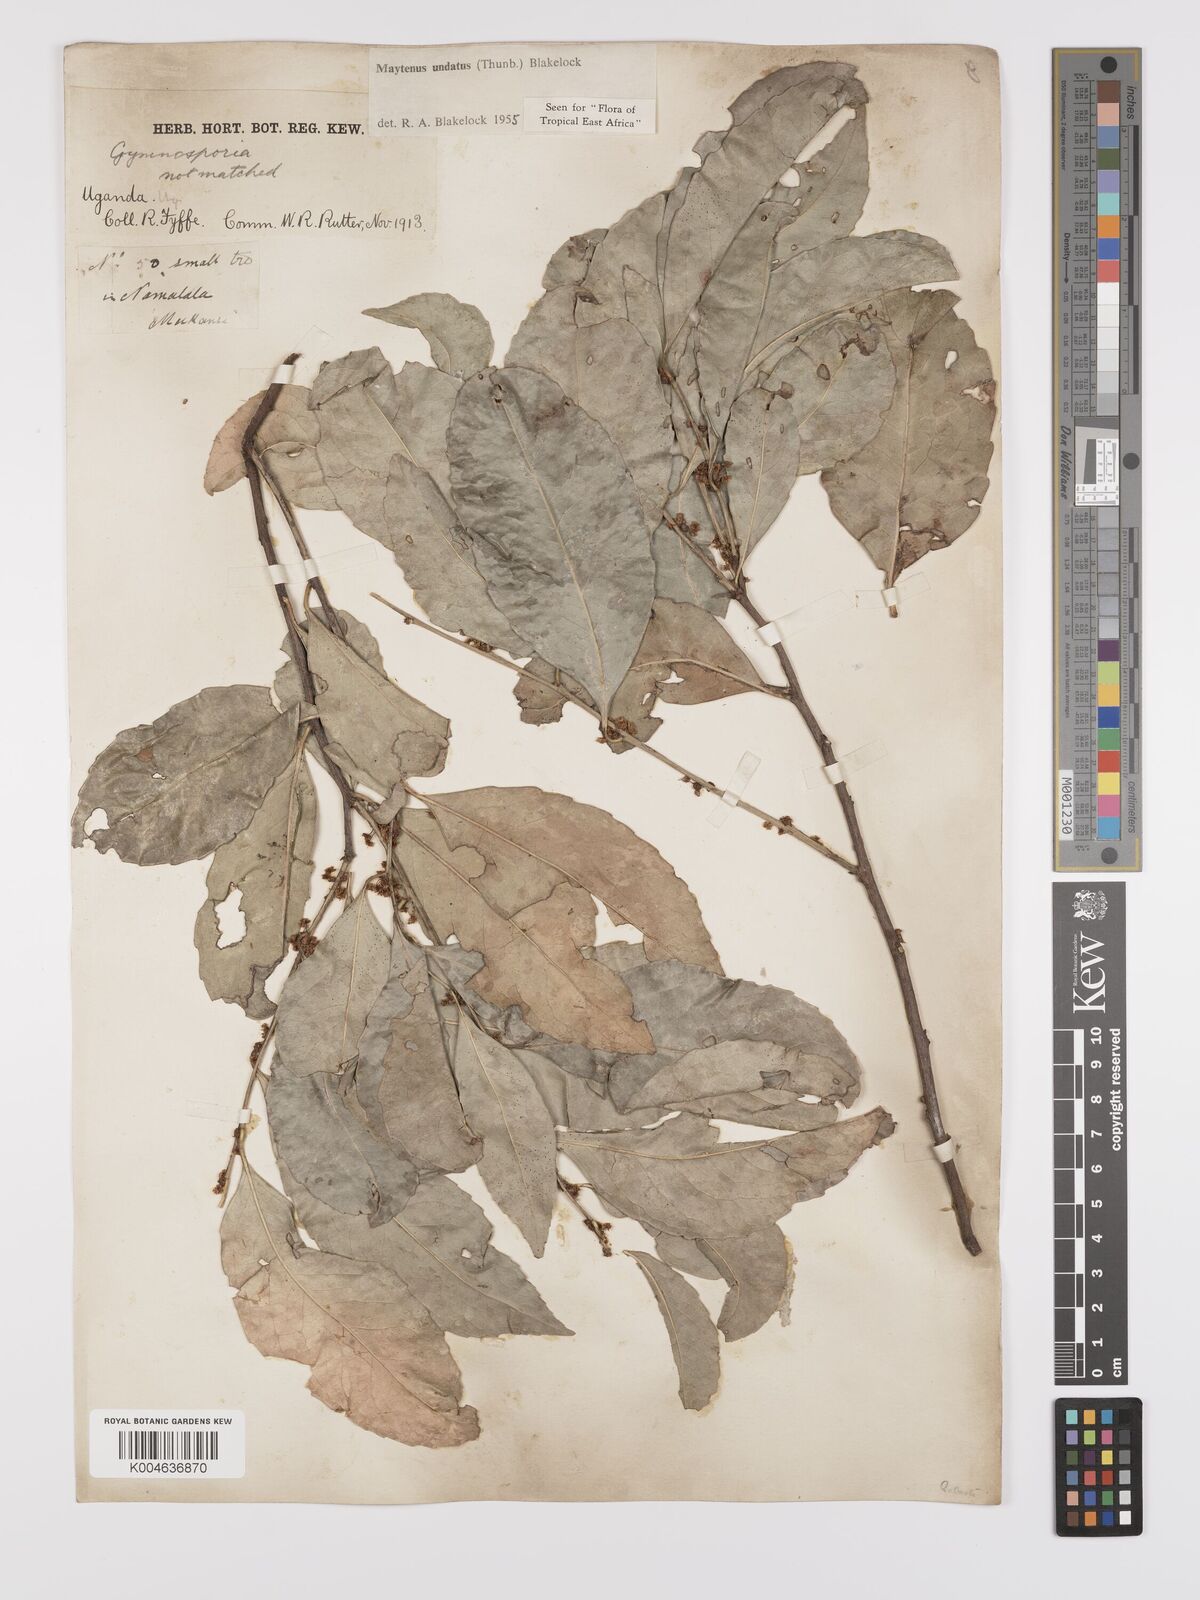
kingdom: Plantae
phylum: Tracheophyta
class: Magnoliopsida
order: Celastrales
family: Celastraceae
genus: Gymnosporia
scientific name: Gymnosporia undata
